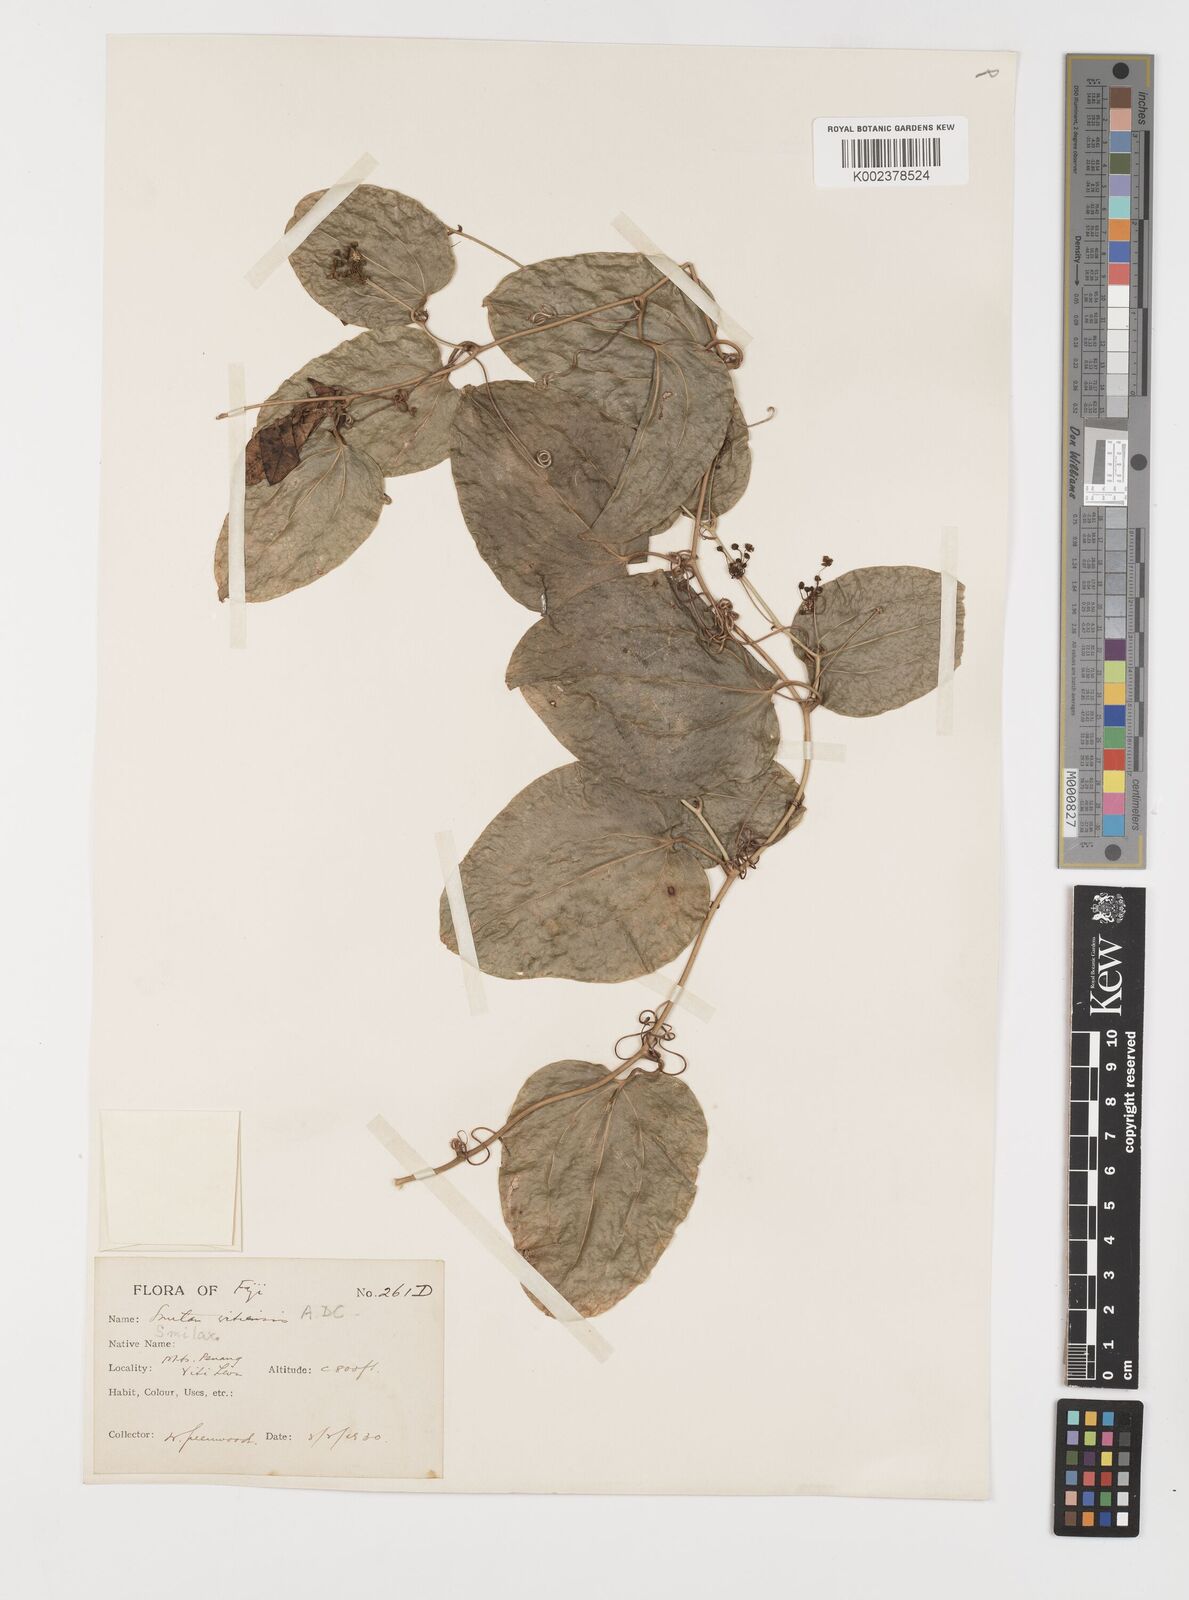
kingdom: Plantae
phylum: Tracheophyta
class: Liliopsida
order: Liliales
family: Smilacaceae
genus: Smilax
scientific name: Smilax vitiensis
